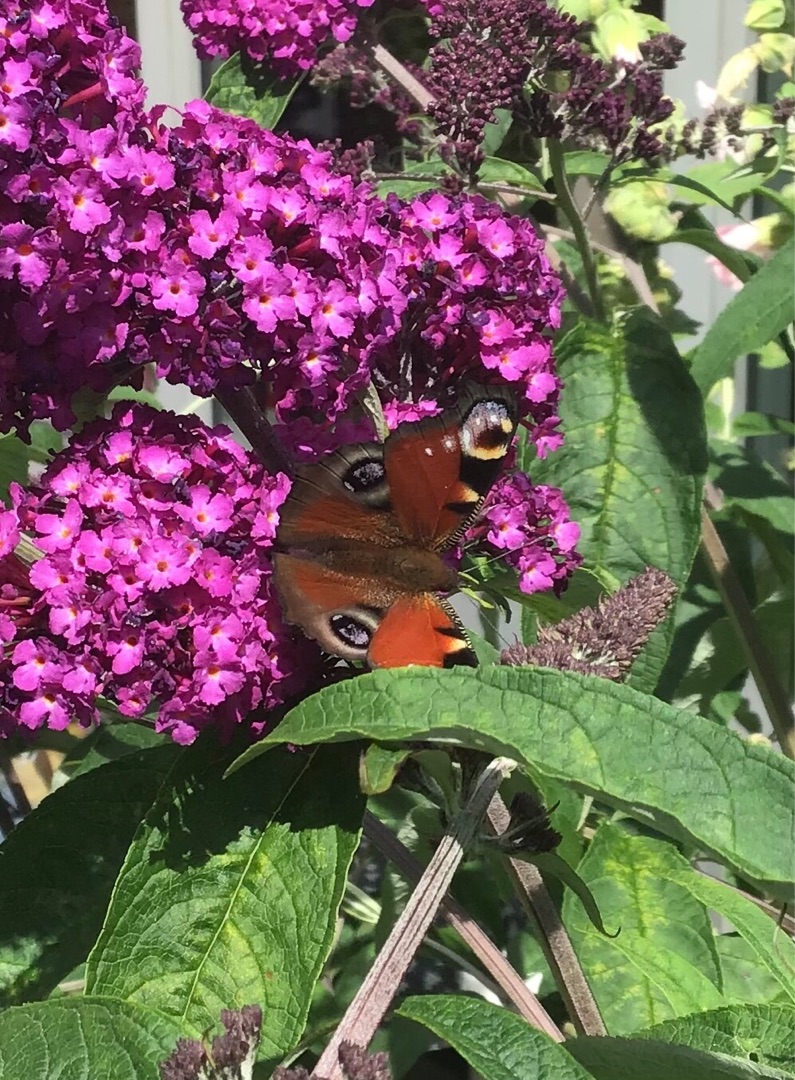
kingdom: Animalia
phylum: Arthropoda
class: Insecta
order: Lepidoptera
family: Nymphalidae
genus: Aglais
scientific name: Aglais io
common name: Dagpåfugleøje
